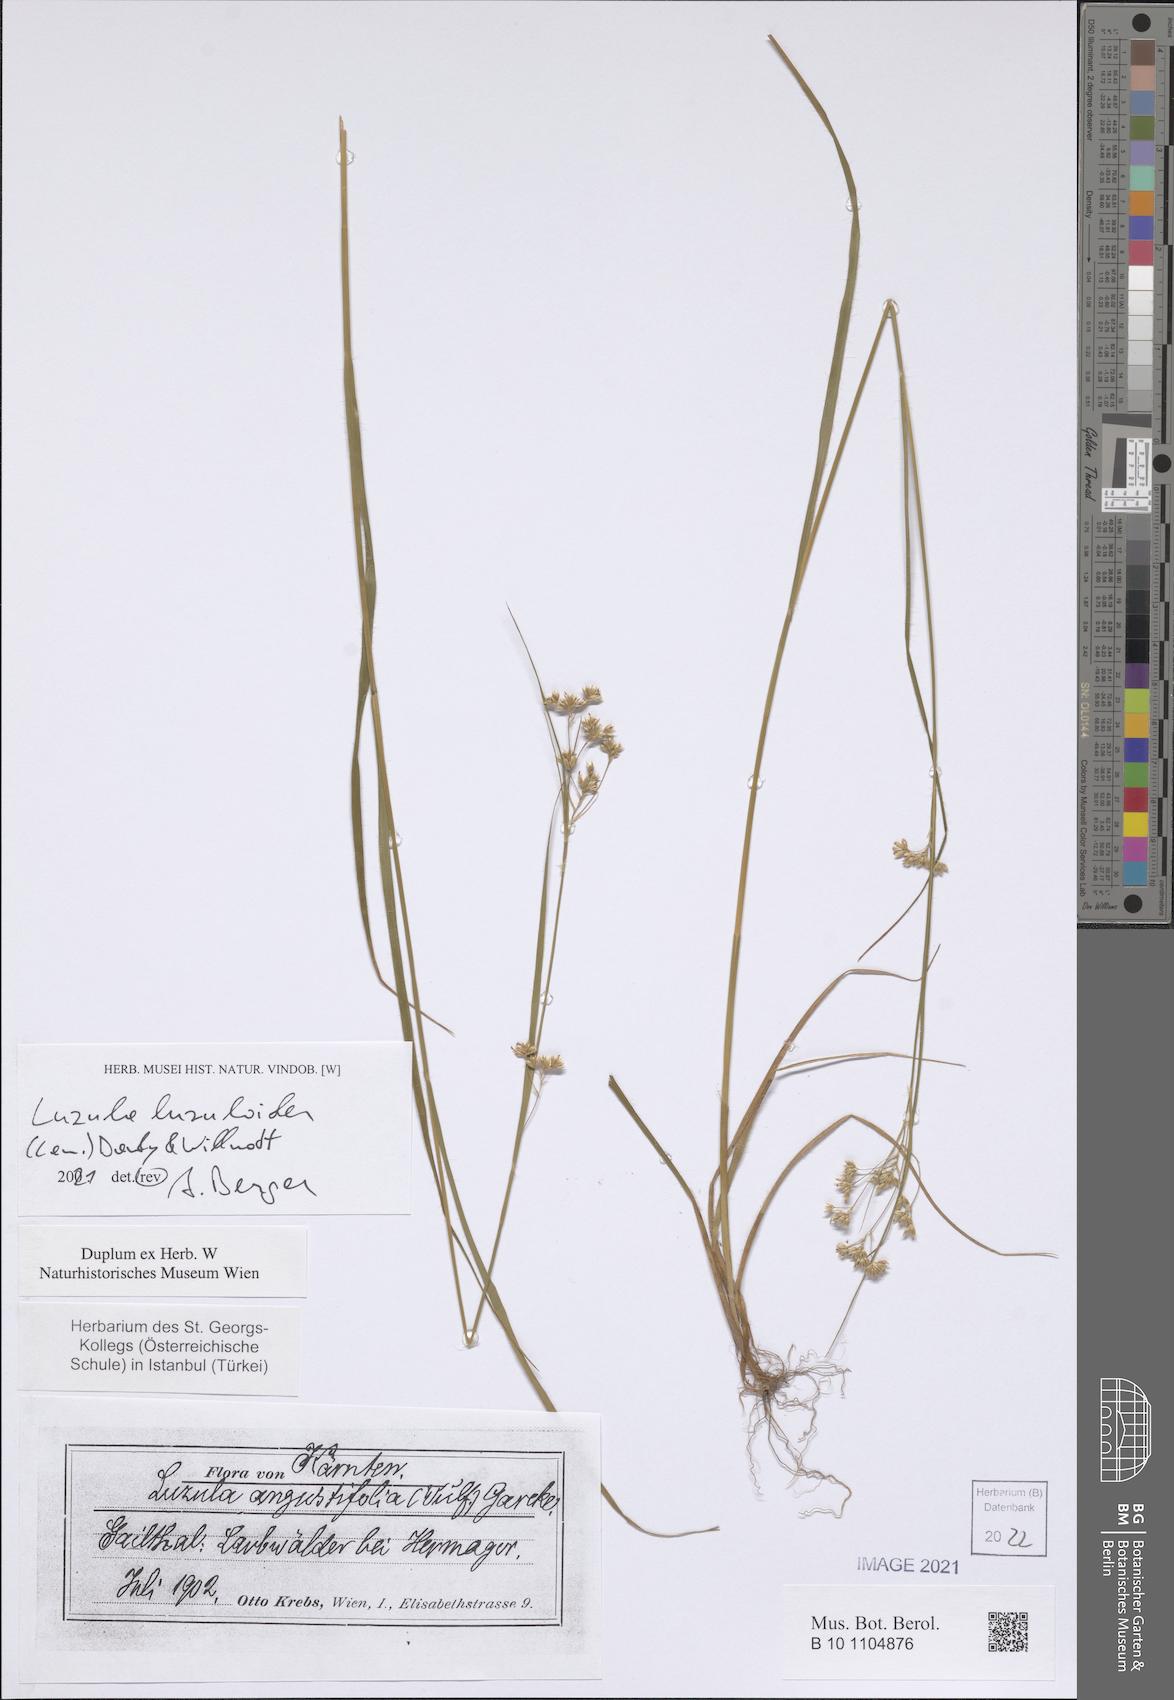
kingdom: Plantae
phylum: Tracheophyta
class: Liliopsida
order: Poales
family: Juncaceae
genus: Luzula
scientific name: Luzula luzuloides
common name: White wood-rush
